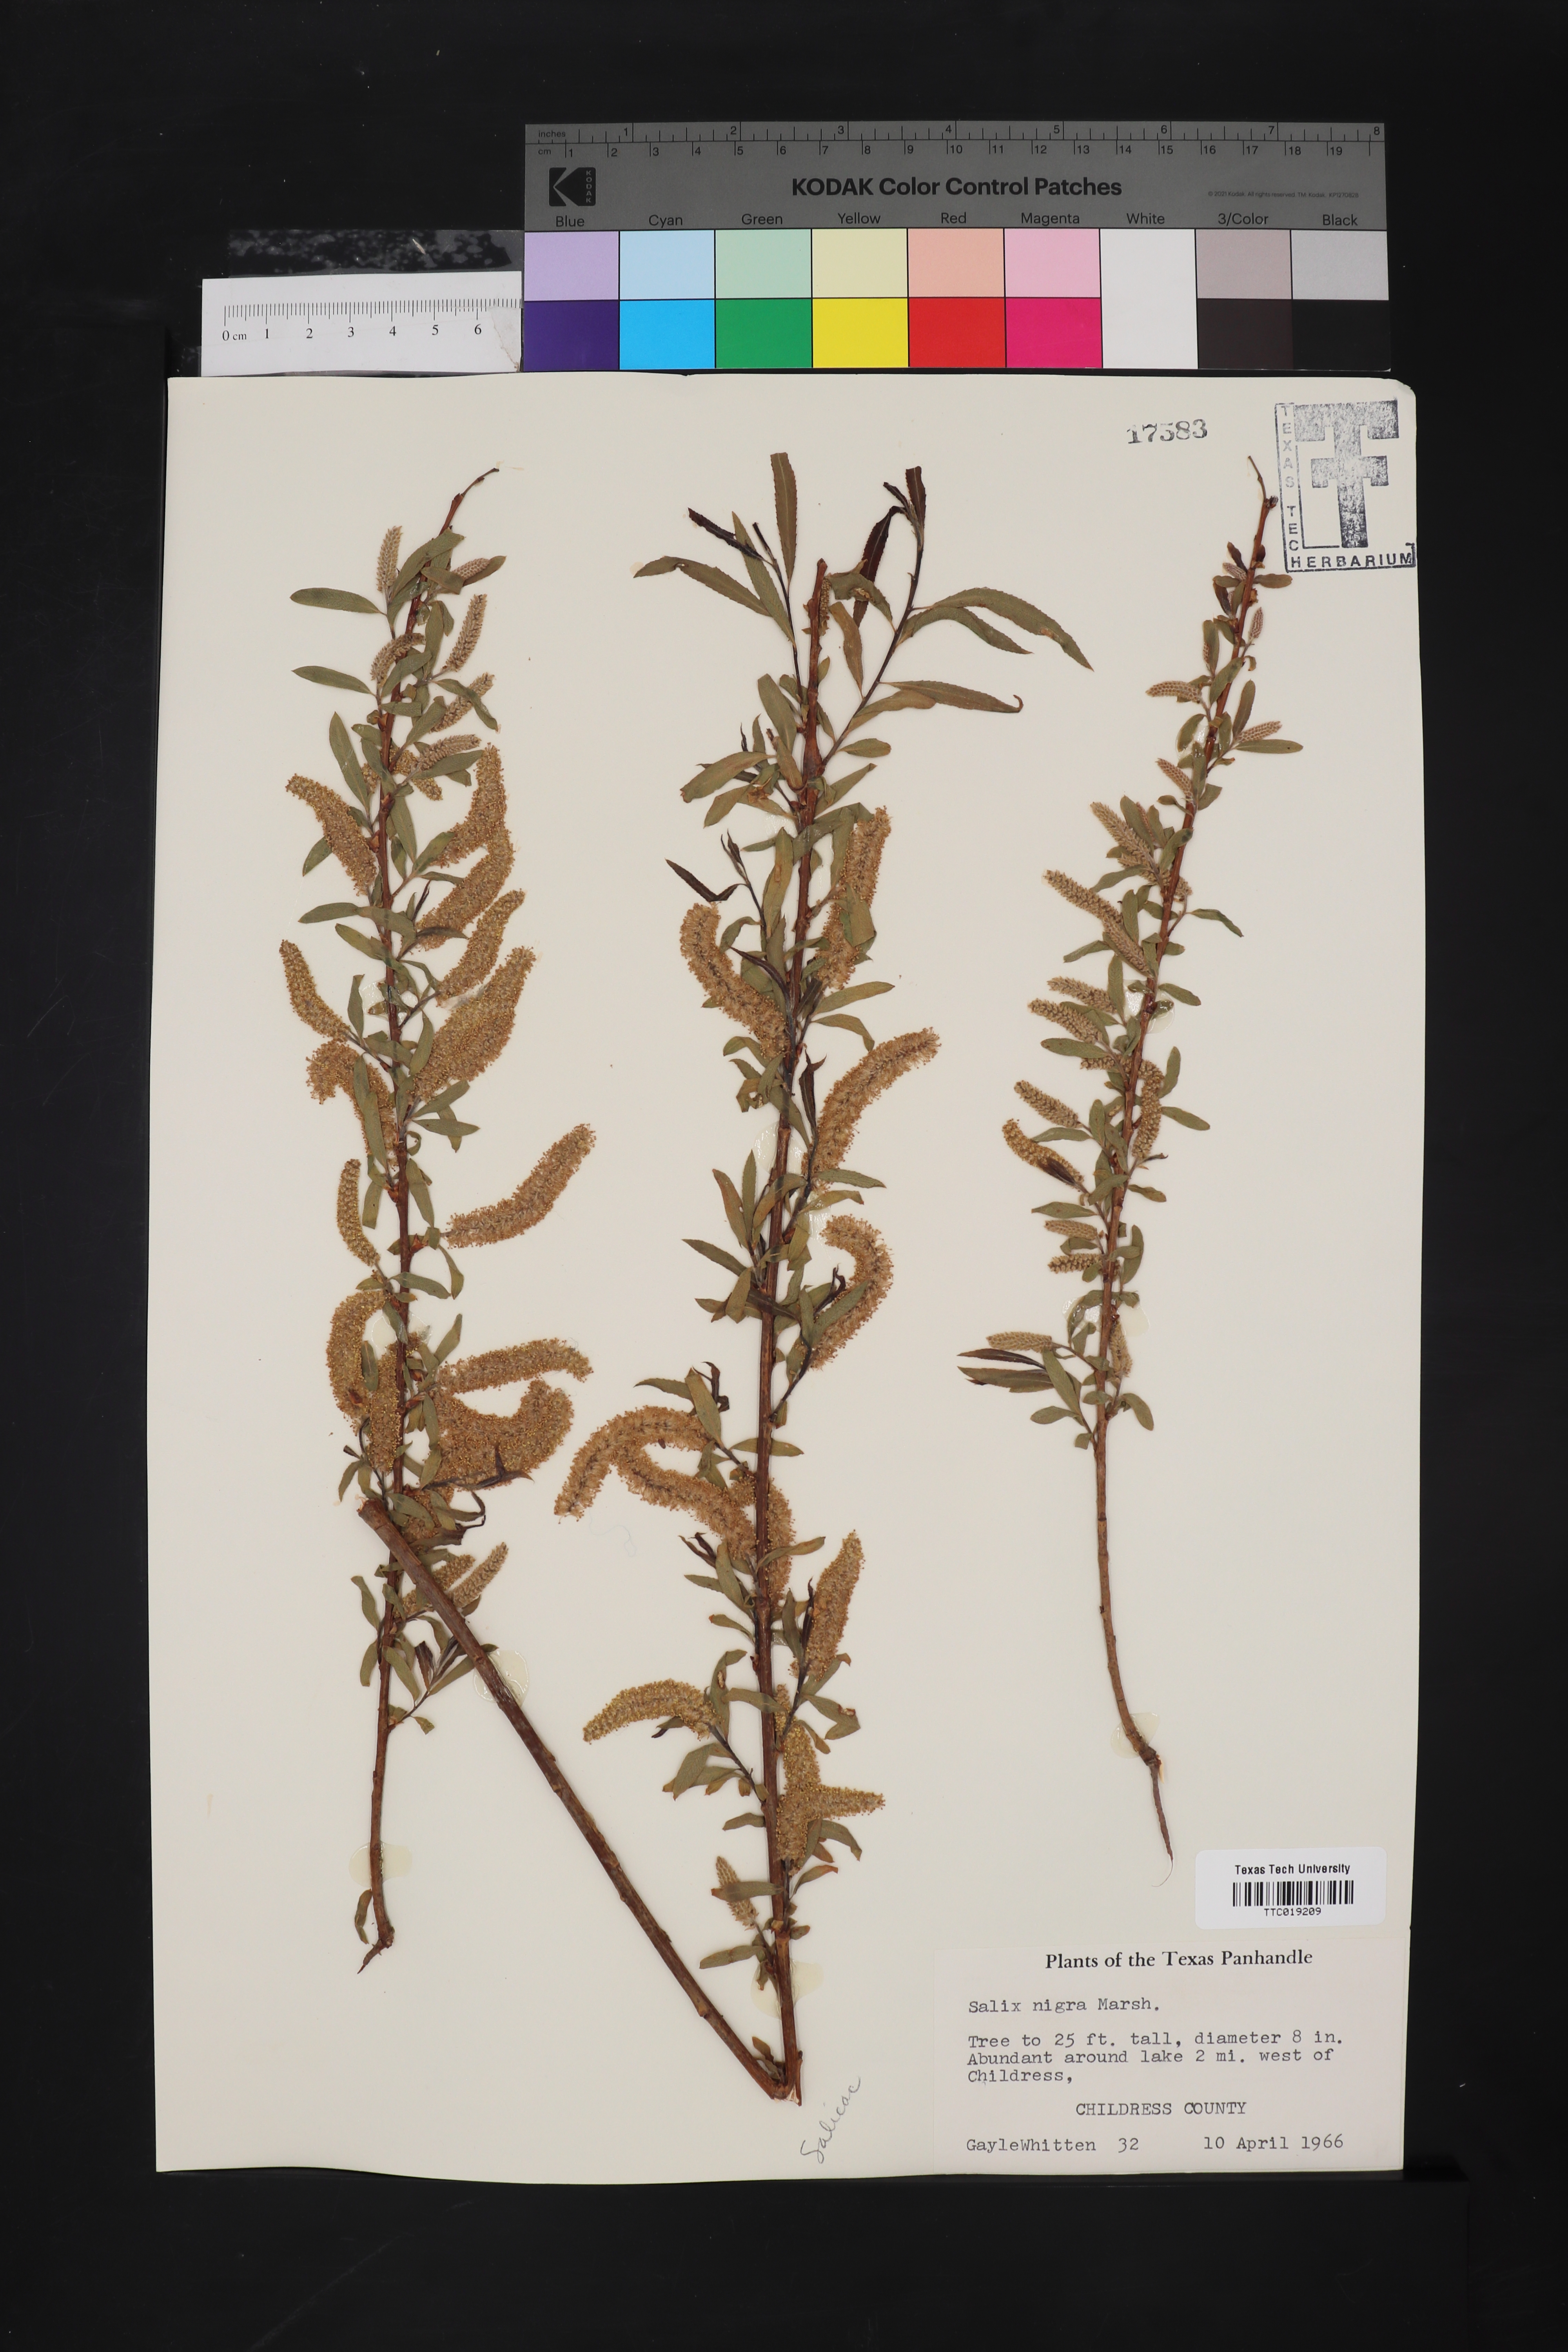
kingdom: Plantae
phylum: Tracheophyta
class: Magnoliopsida
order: Malpighiales
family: Salicaceae
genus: Salix
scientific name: Salix nigra
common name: Black willow
